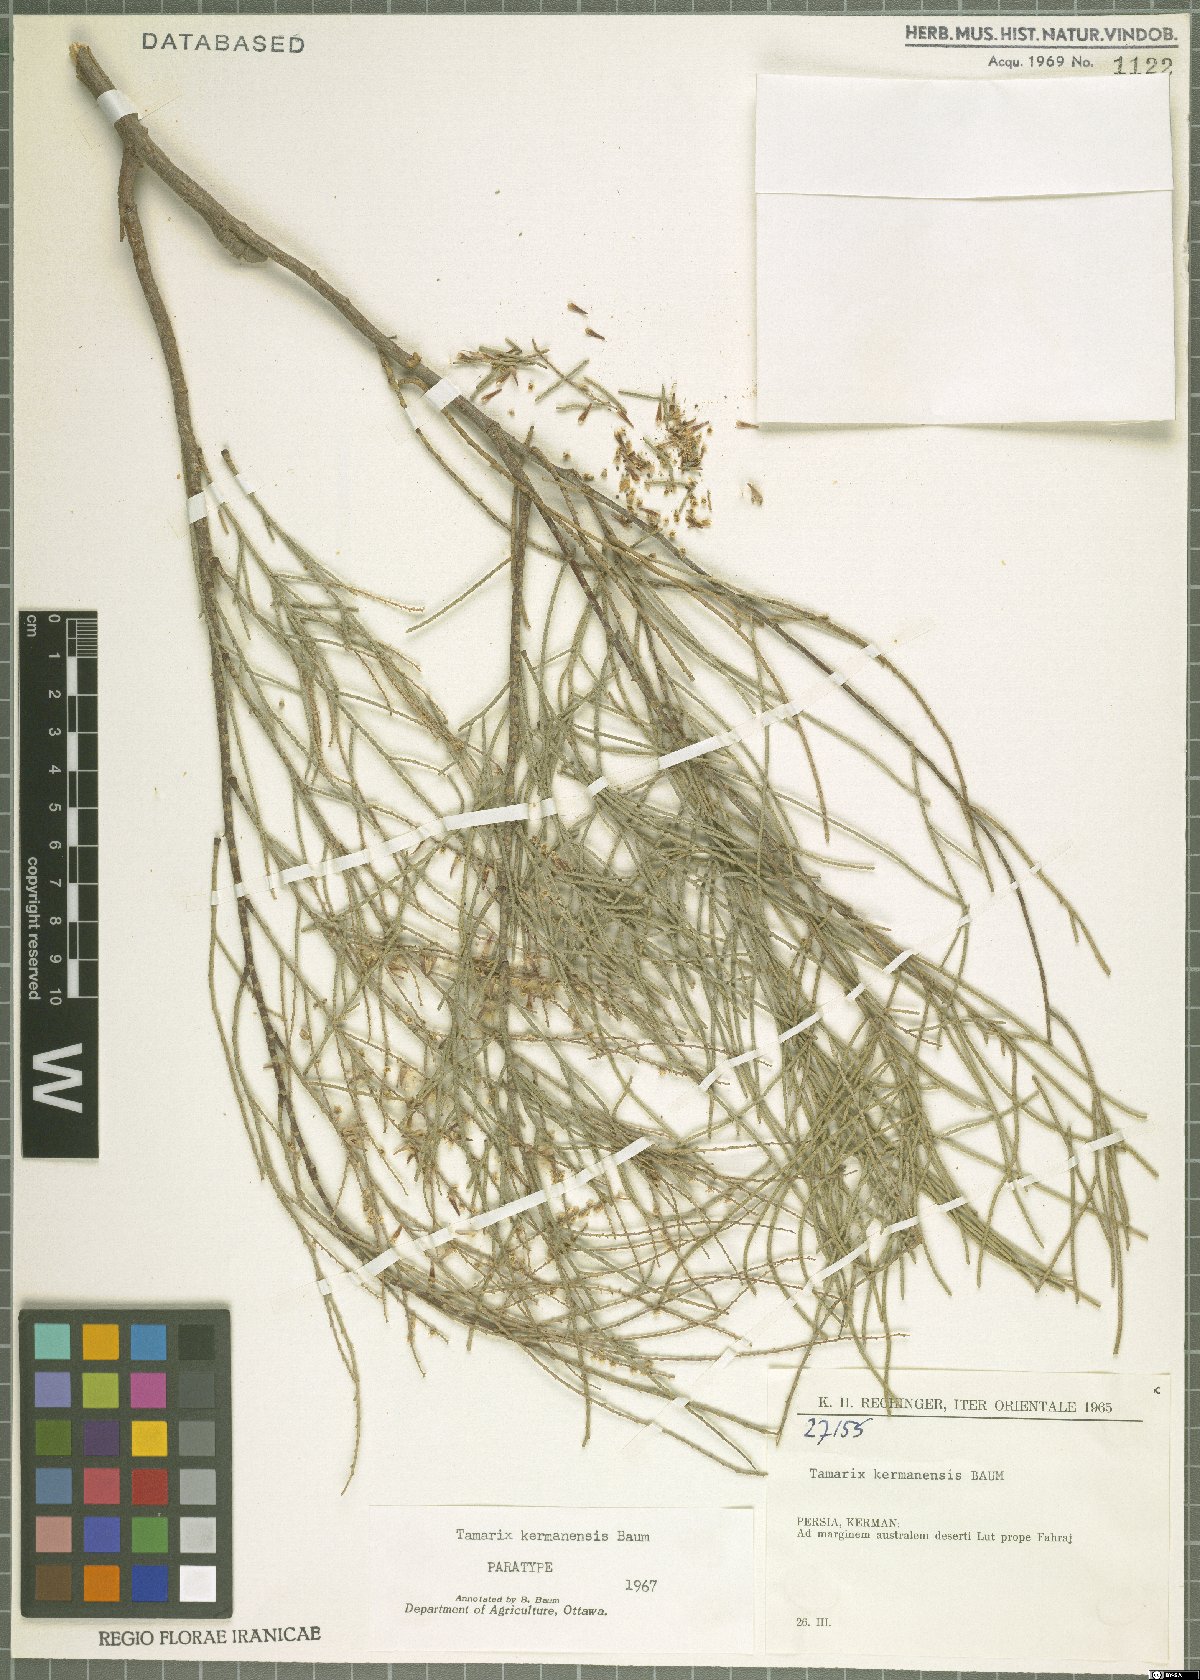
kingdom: Plantae
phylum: Tracheophyta
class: Magnoliopsida
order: Caryophyllales
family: Tamaricaceae
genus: Tamarix
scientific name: Tamarix kermanensis
